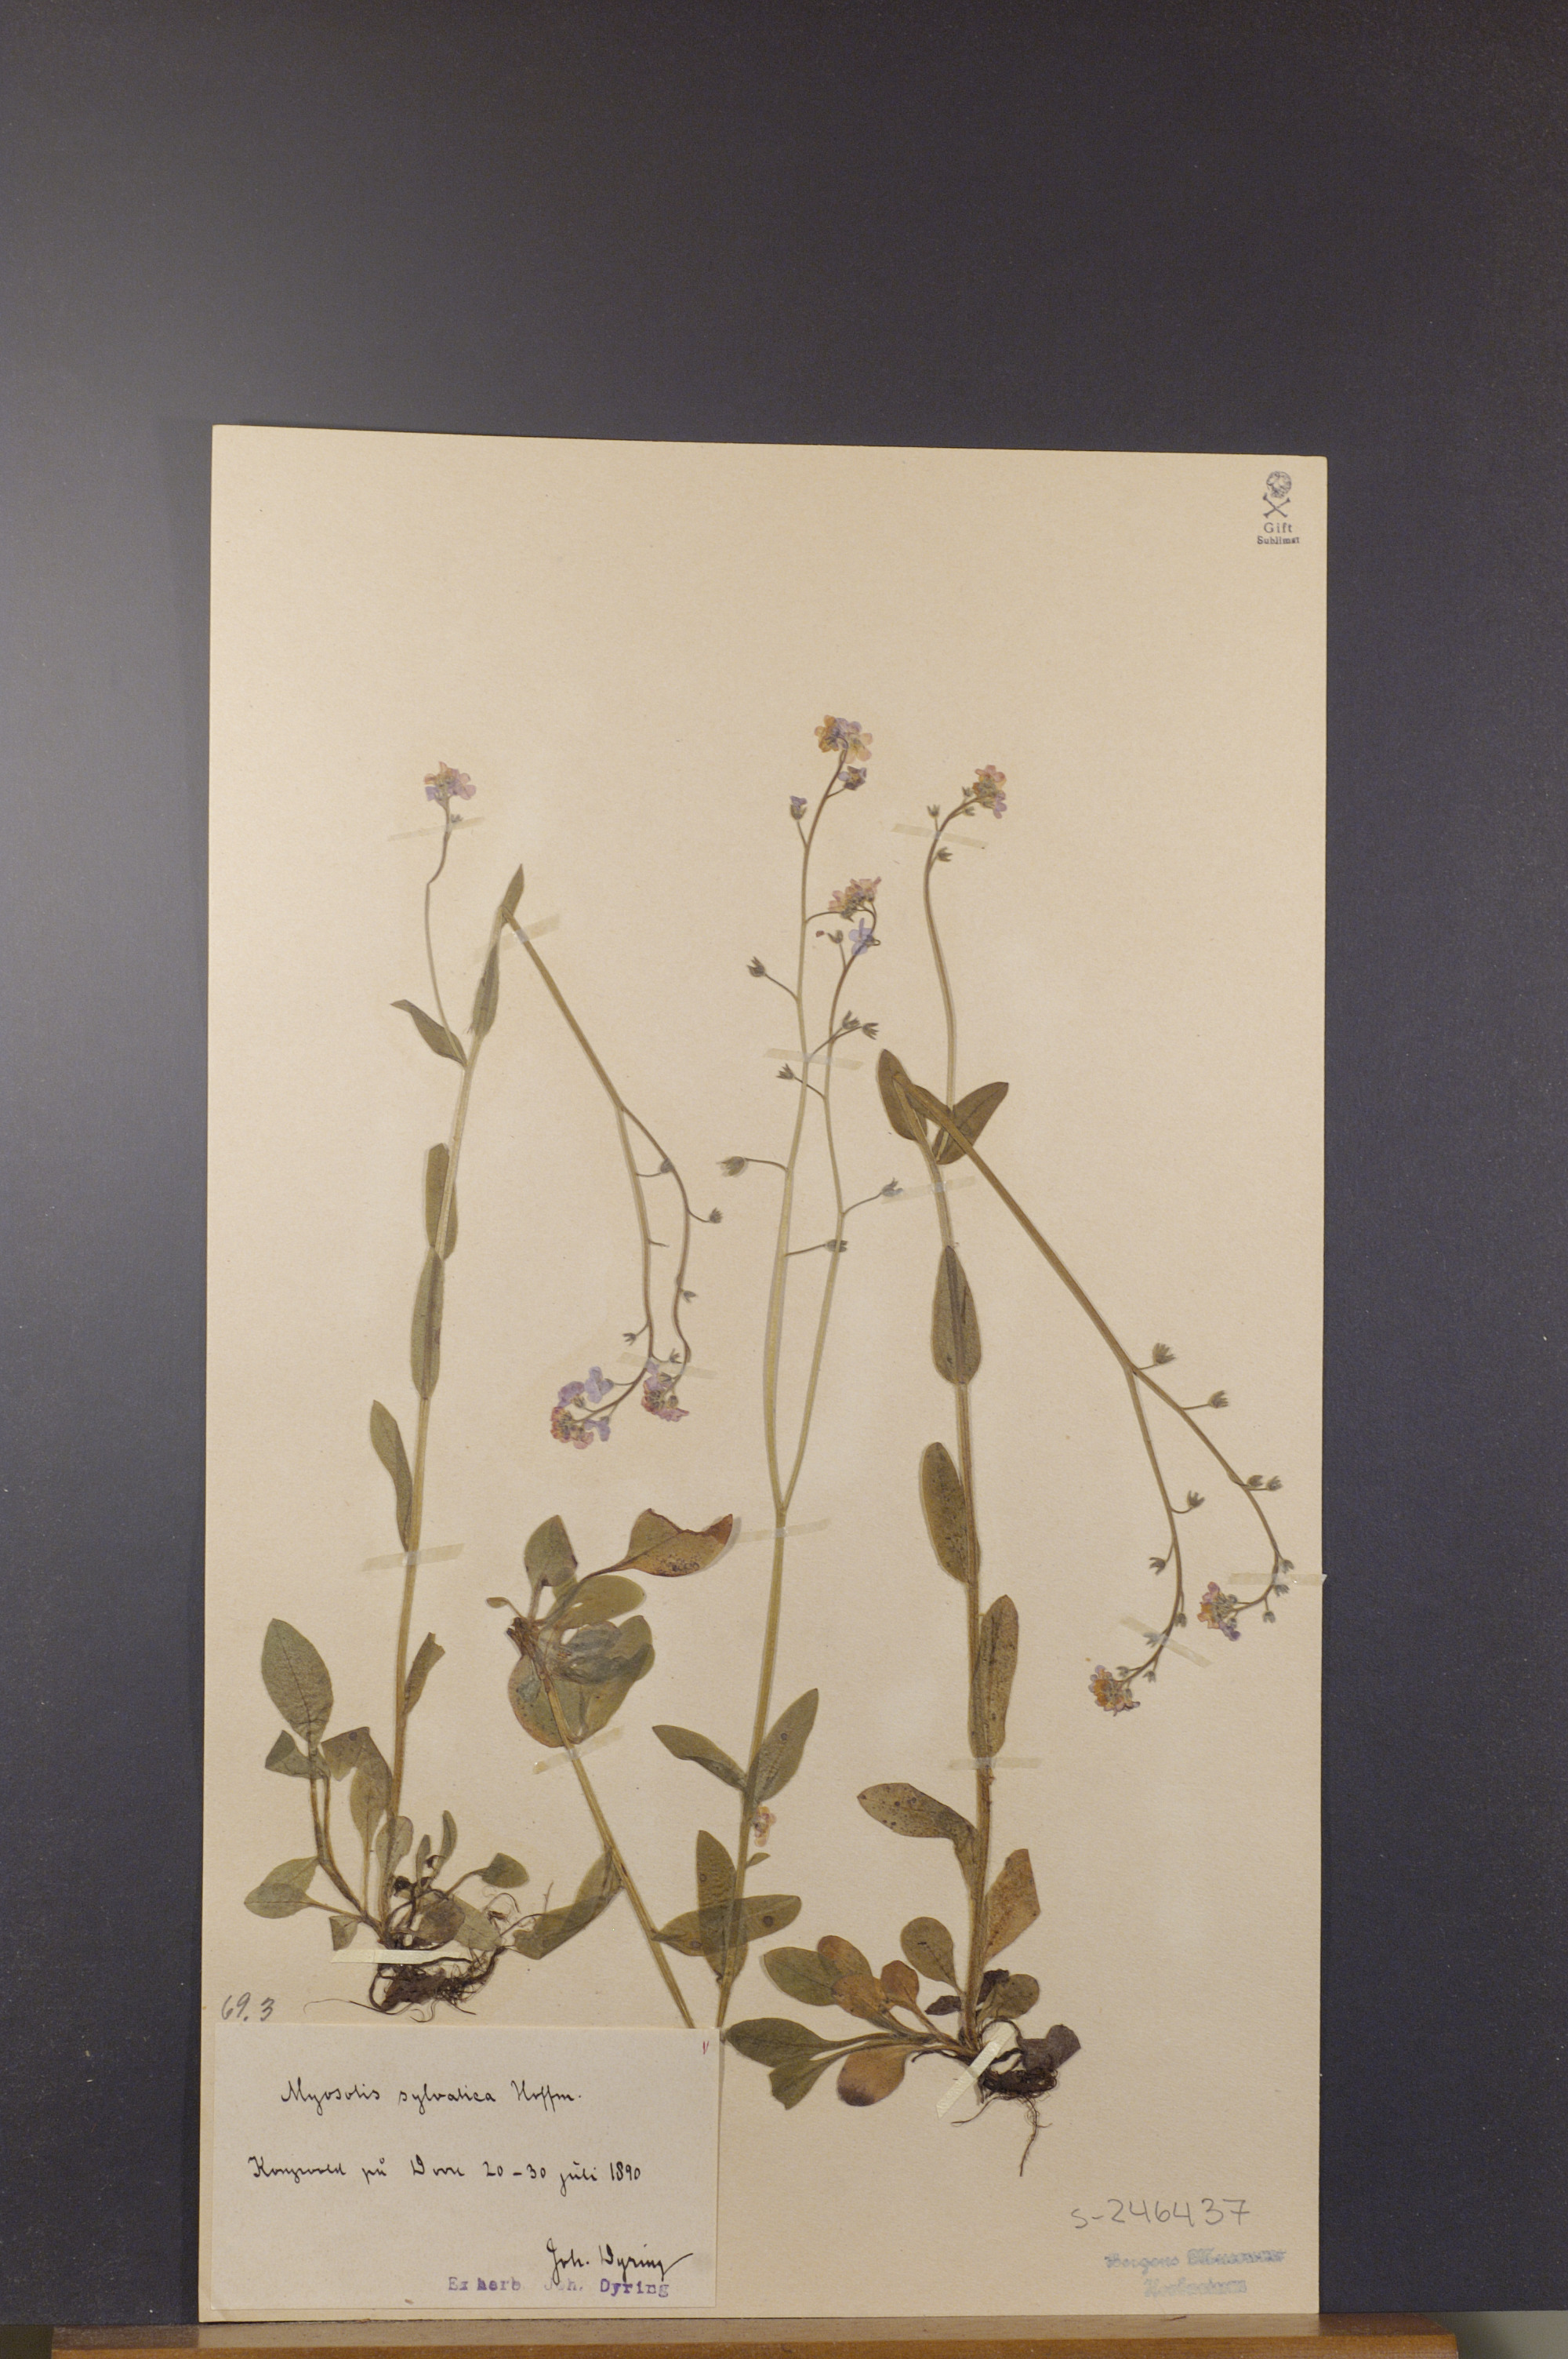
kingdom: Plantae
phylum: Tracheophyta
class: Magnoliopsida
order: Boraginales
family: Boraginaceae
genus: Myosotis
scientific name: Myosotis decumbens
